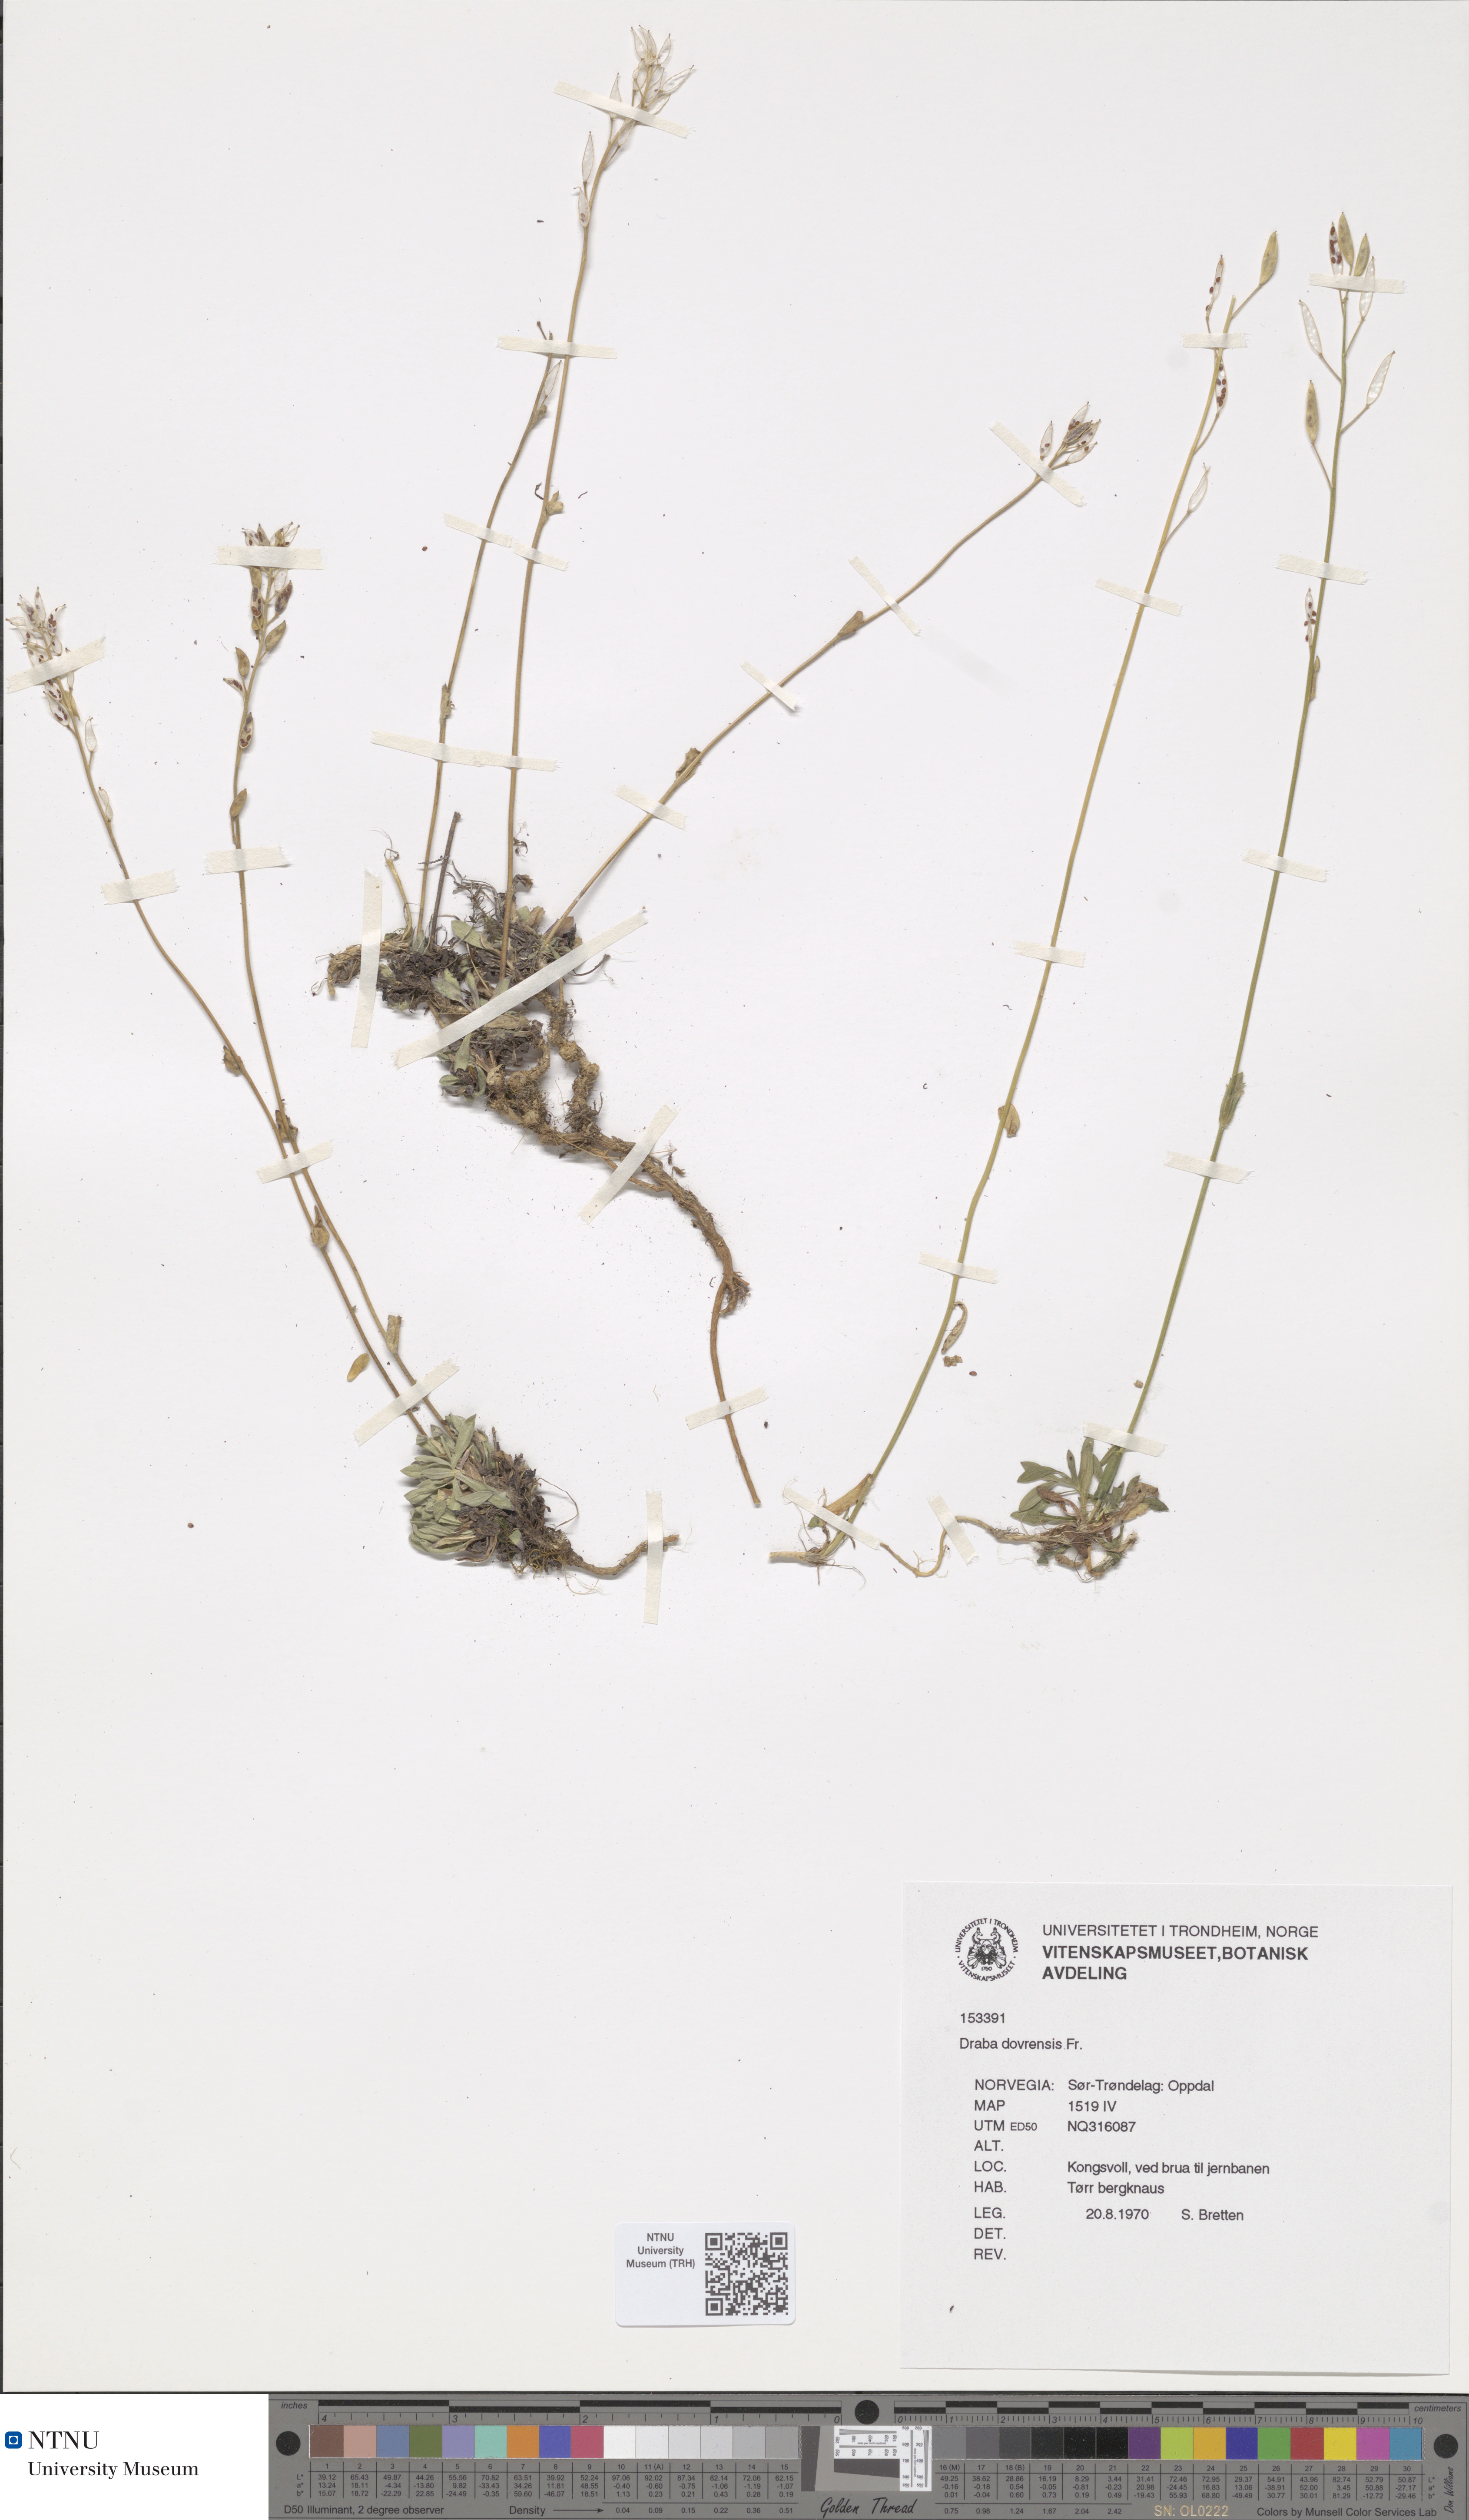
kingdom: Plantae
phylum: Tracheophyta
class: Magnoliopsida
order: Brassicales
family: Brassicaceae
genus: Draba
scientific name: Draba glabella
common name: Glaucous draba
